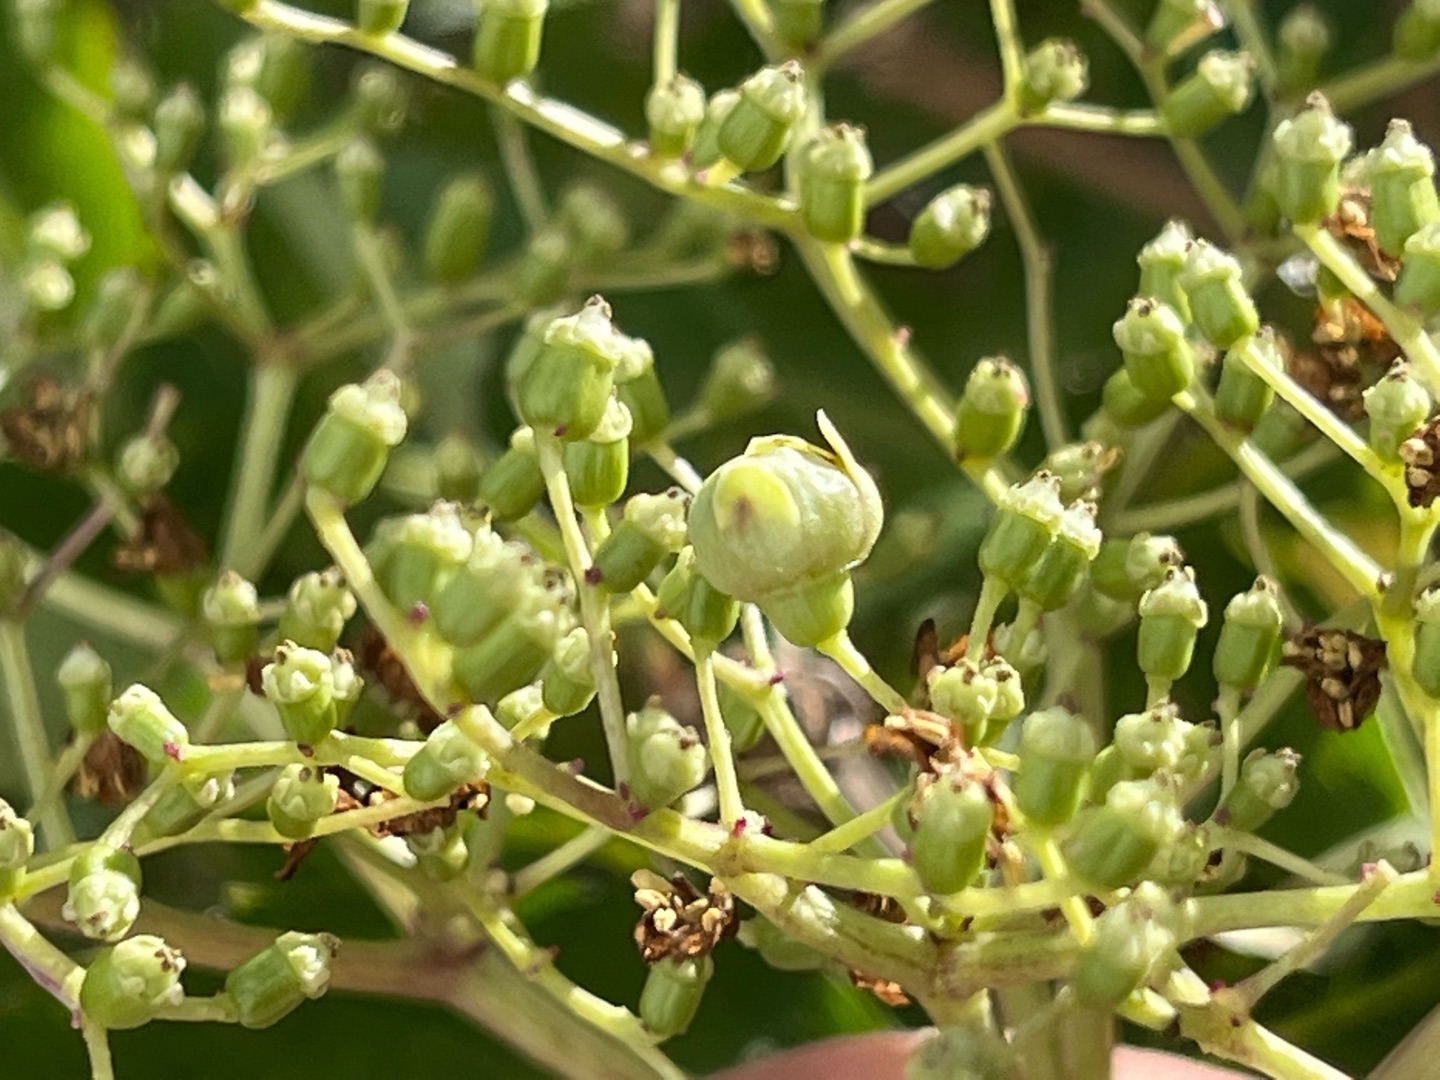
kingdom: Animalia
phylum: Arthropoda
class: Insecta
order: Diptera
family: Cecidomyiidae
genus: Placochela
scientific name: Placochela nigripes
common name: Hyldeblomstgalmyg
